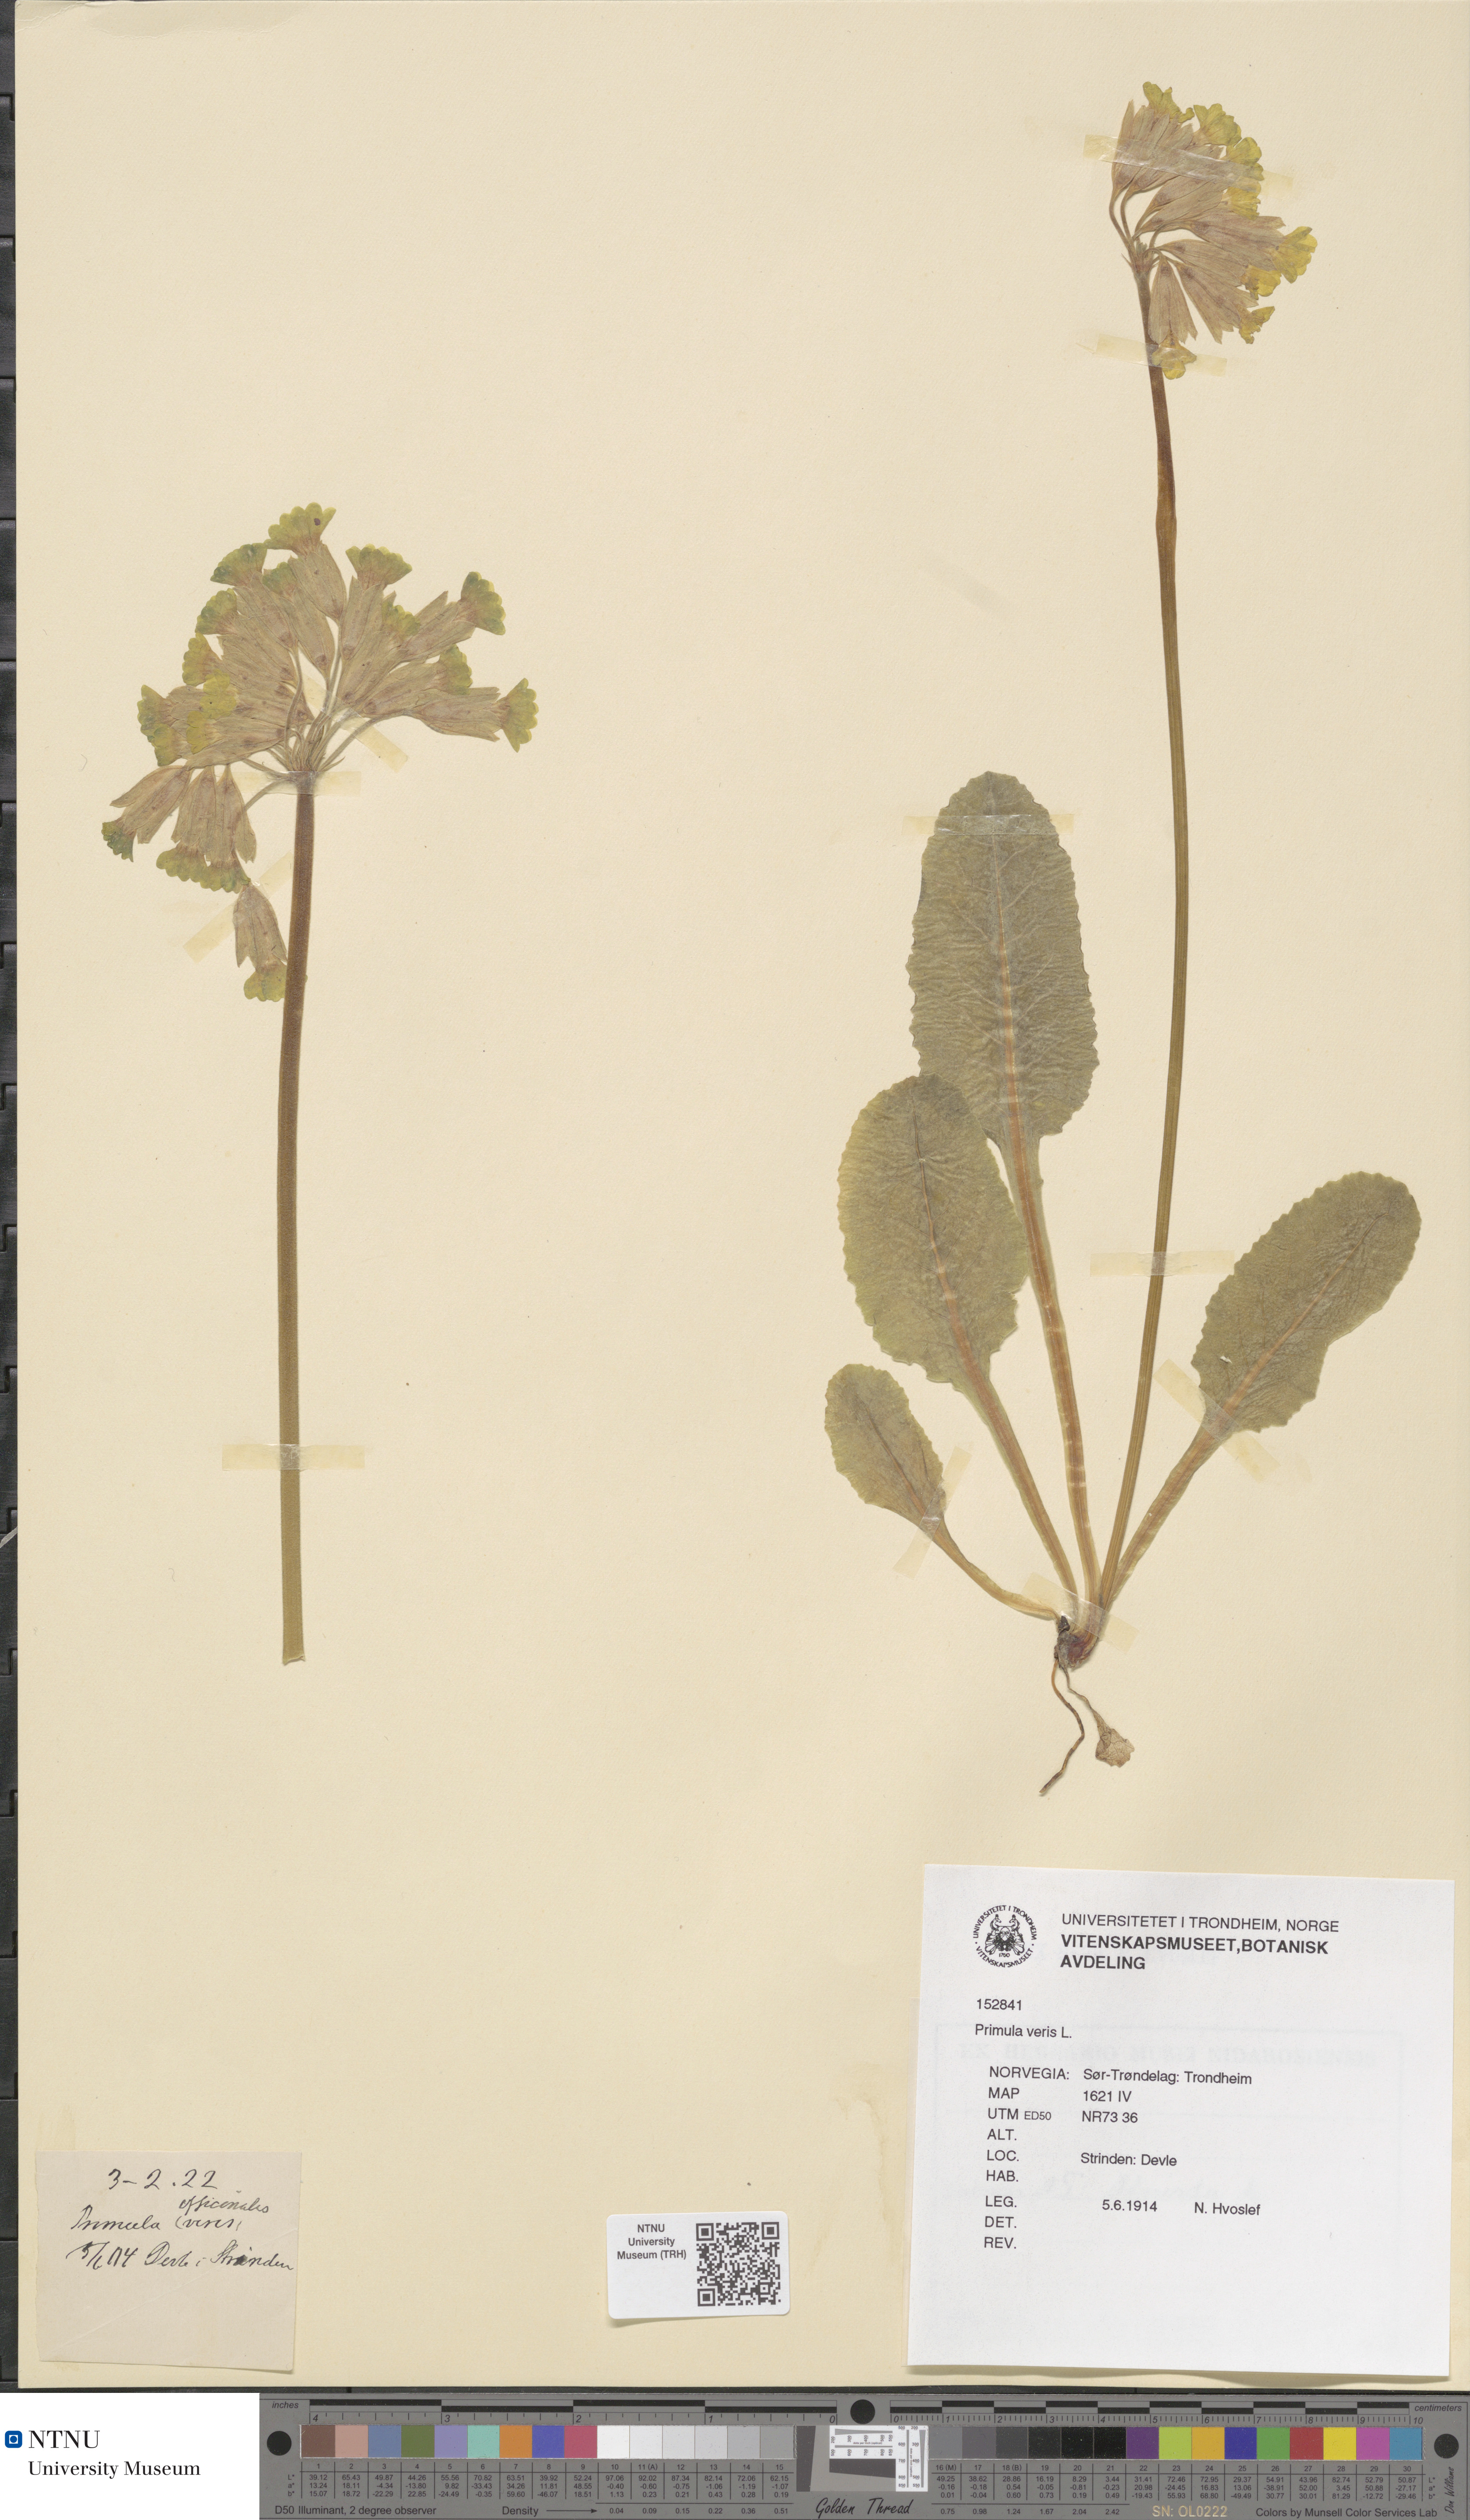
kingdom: Plantae
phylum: Tracheophyta
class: Magnoliopsida
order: Ericales
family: Primulaceae
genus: Primula
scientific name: Primula veris
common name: Cowslip
